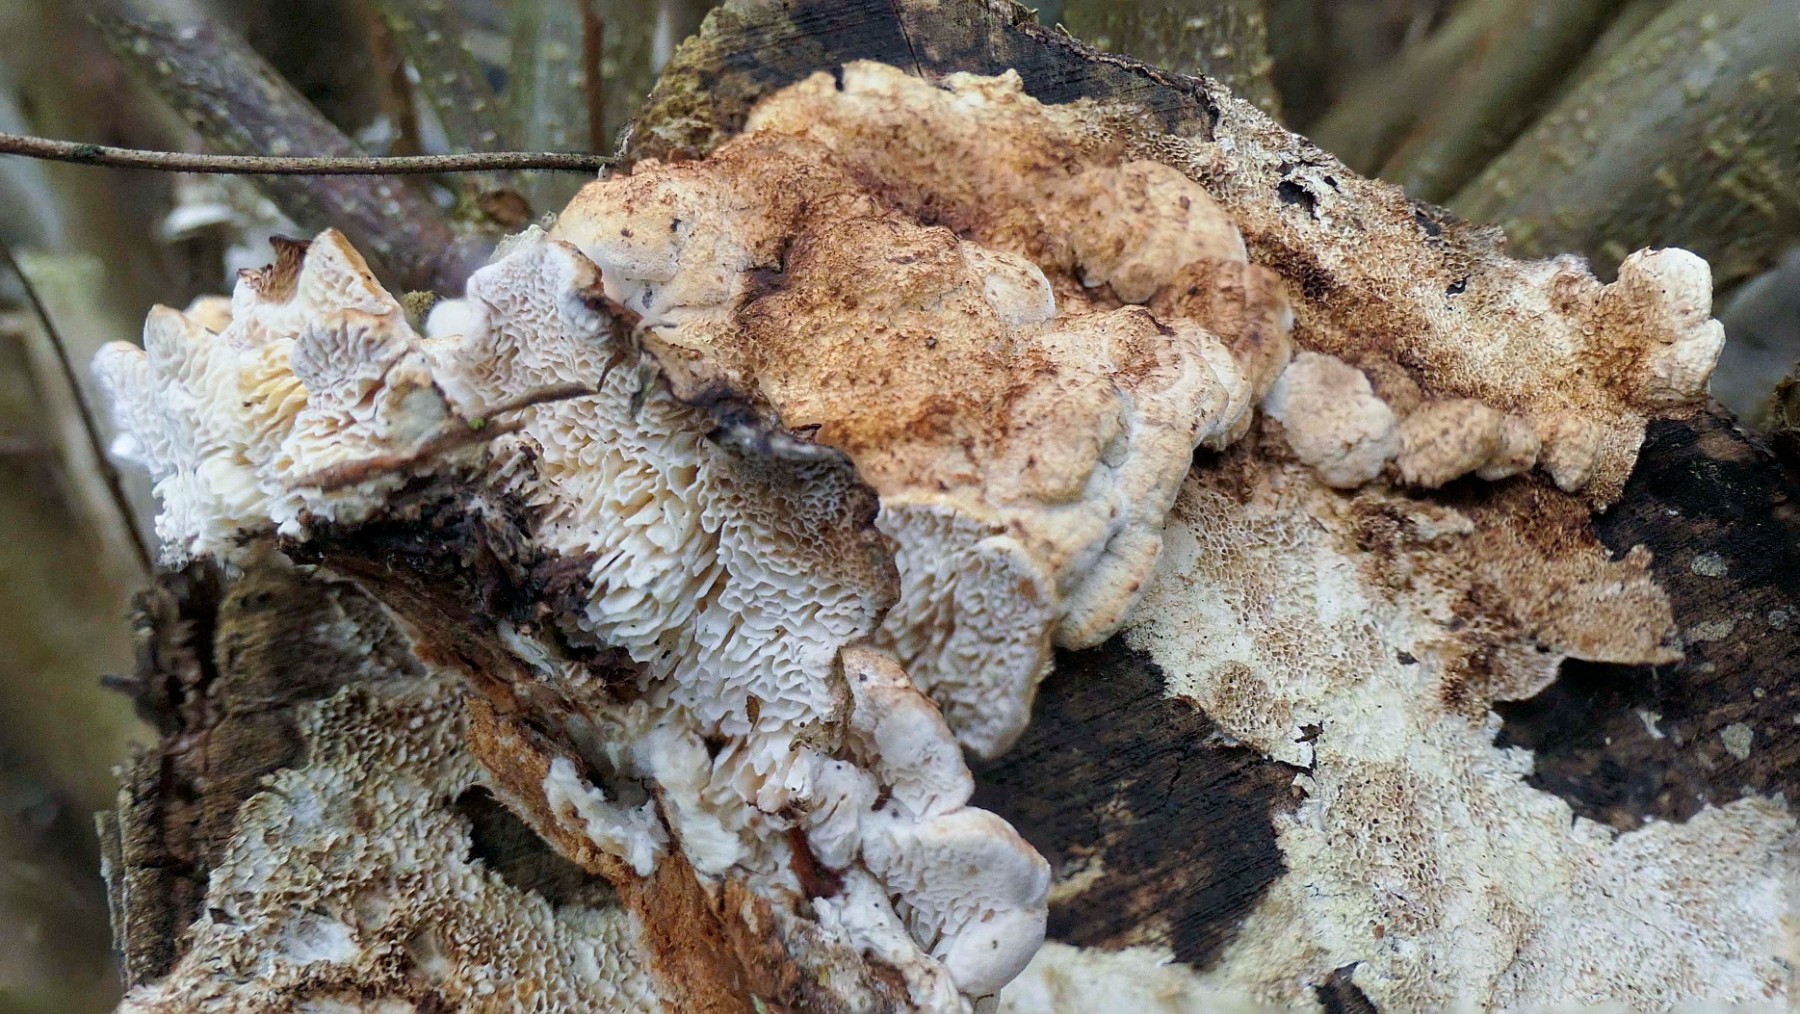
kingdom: Fungi
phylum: Basidiomycota
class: Agaricomycetes
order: Polyporales
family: Fomitopsidaceae
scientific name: Fomitopsidaceae
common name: hovporesvampfamilien
